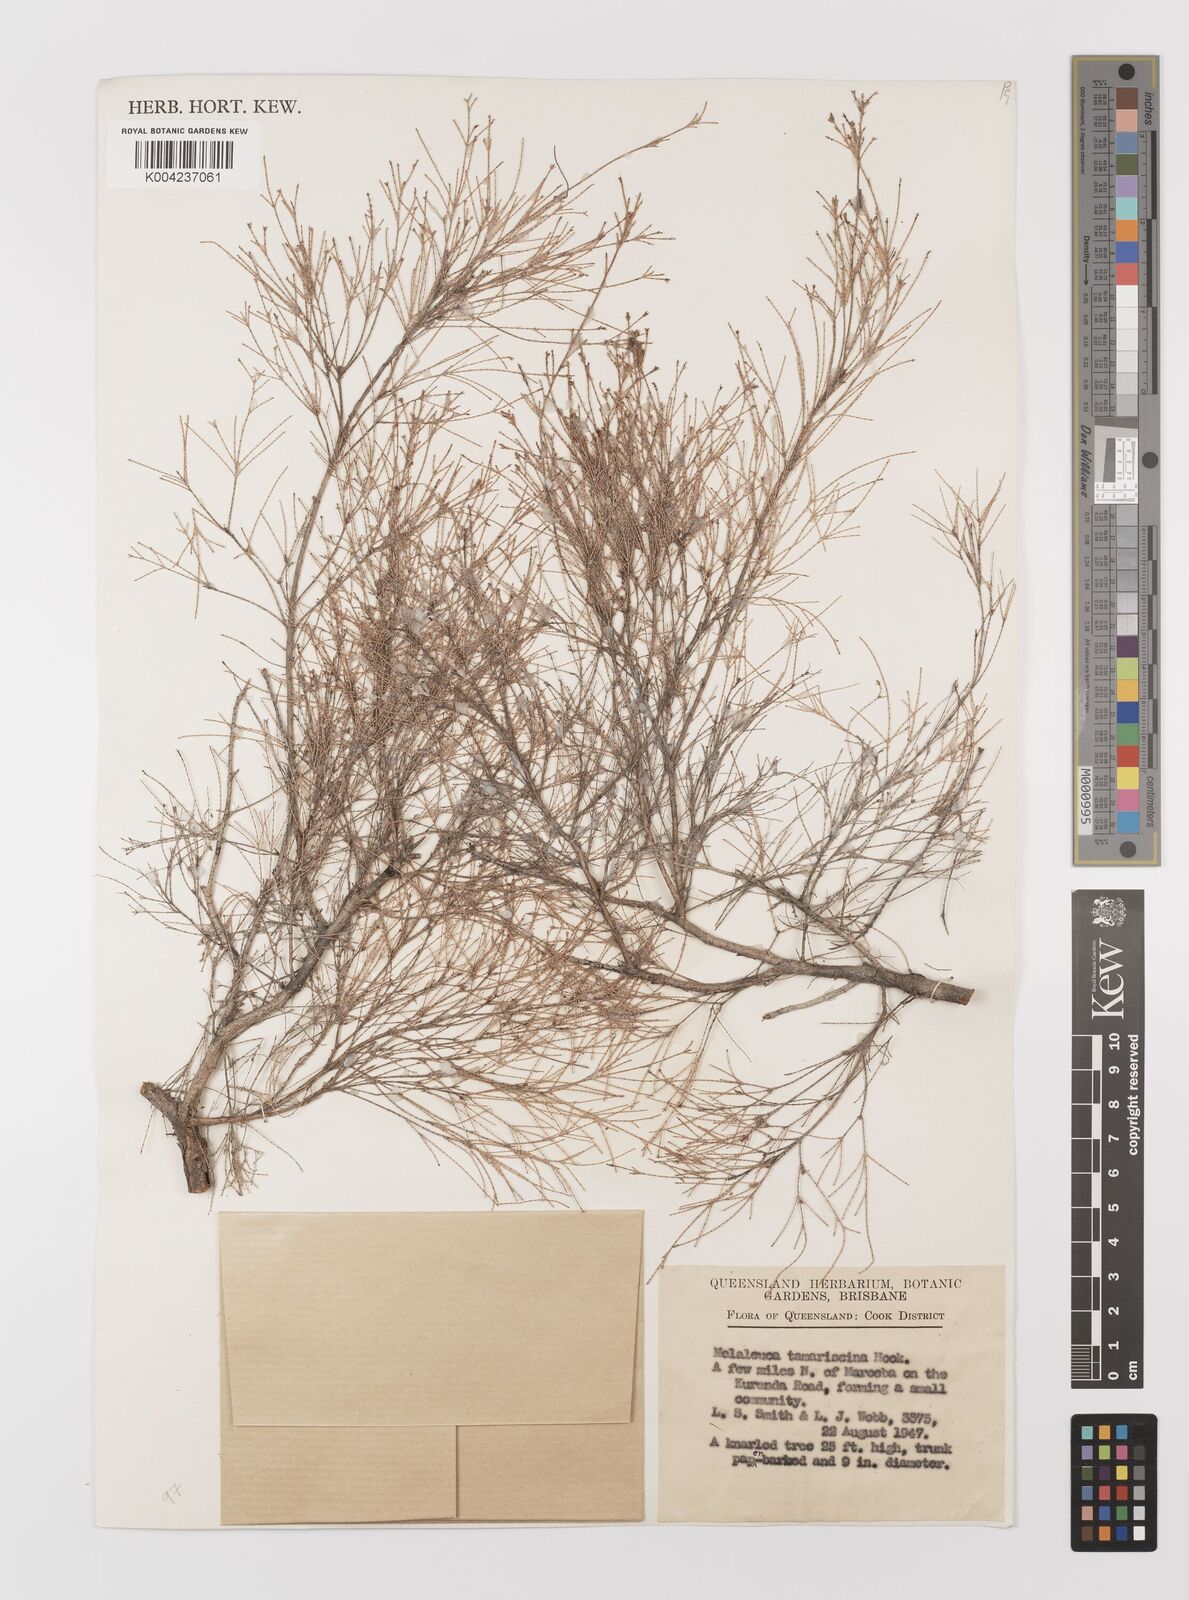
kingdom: Plantae
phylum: Tracheophyta
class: Magnoliopsida
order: Myrtales
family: Myrtaceae
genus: Melaleuca
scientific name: Melaleuca tamariscina
